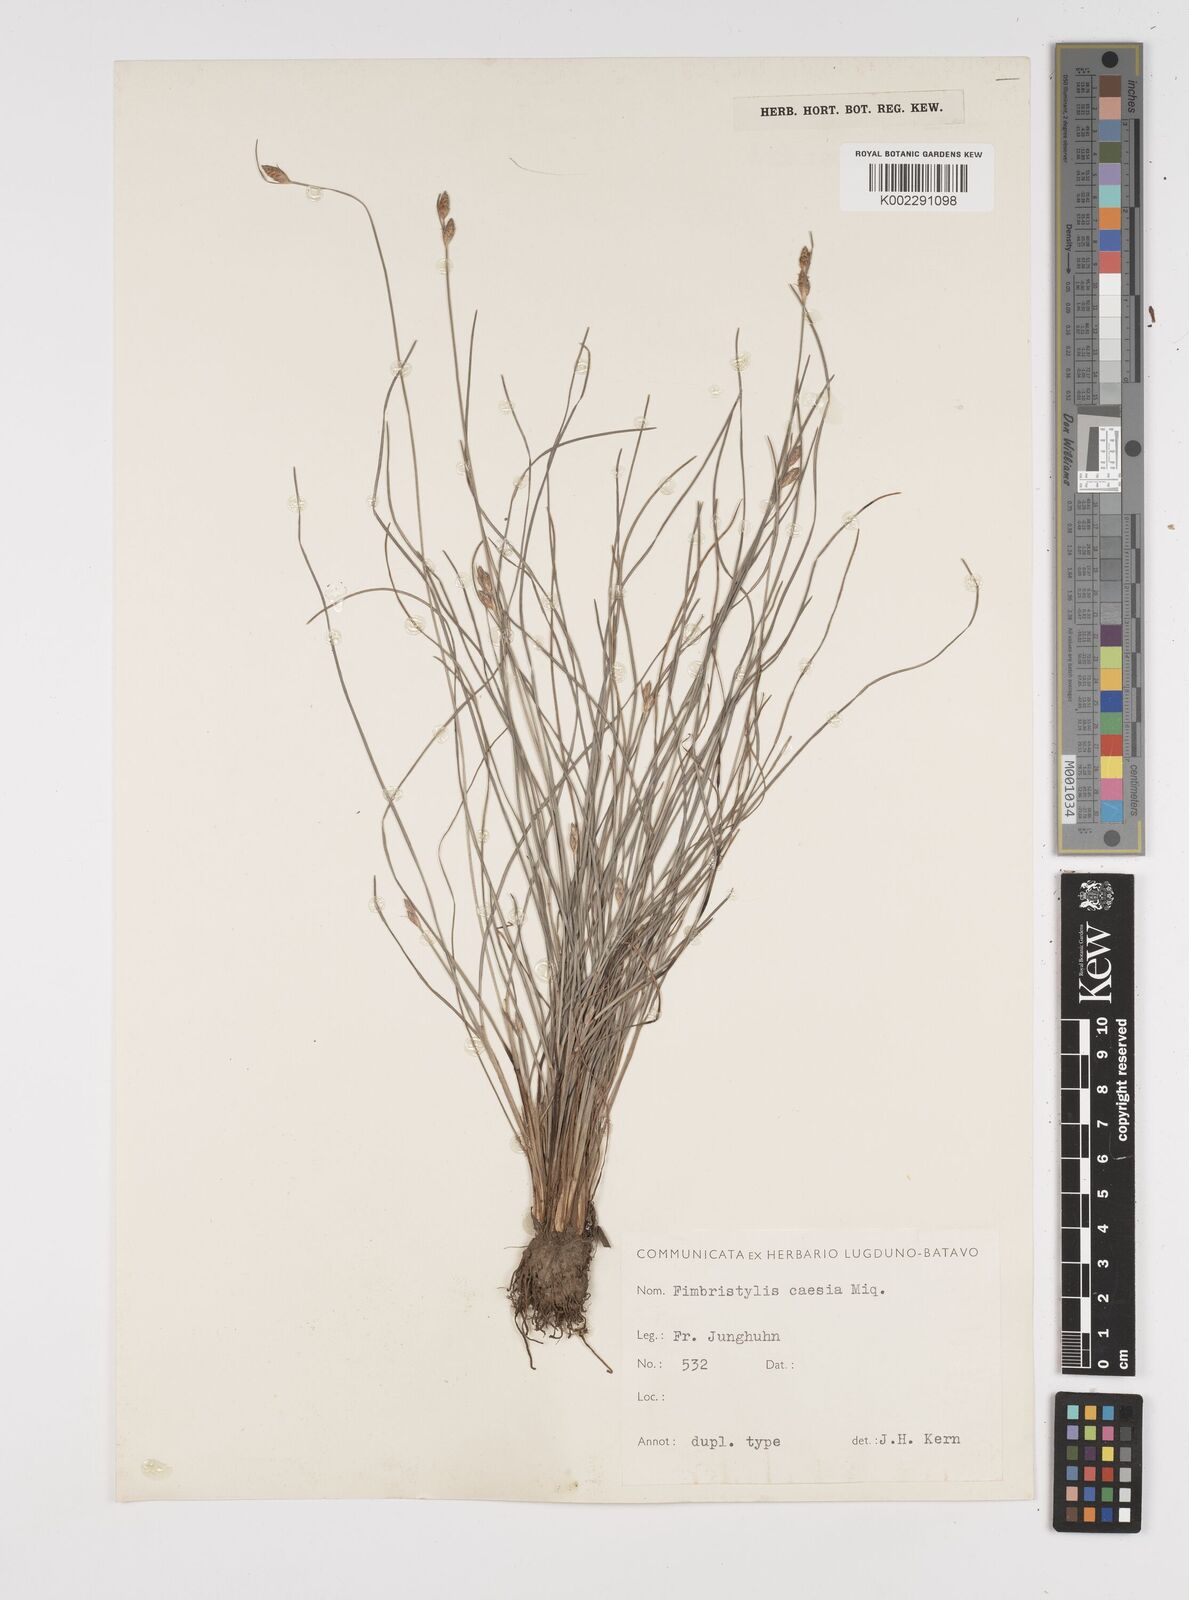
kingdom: Plantae
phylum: Tracheophyta
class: Liliopsida
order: Poales
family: Cyperaceae
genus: Fimbristylis
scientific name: Fimbristylis caesia
